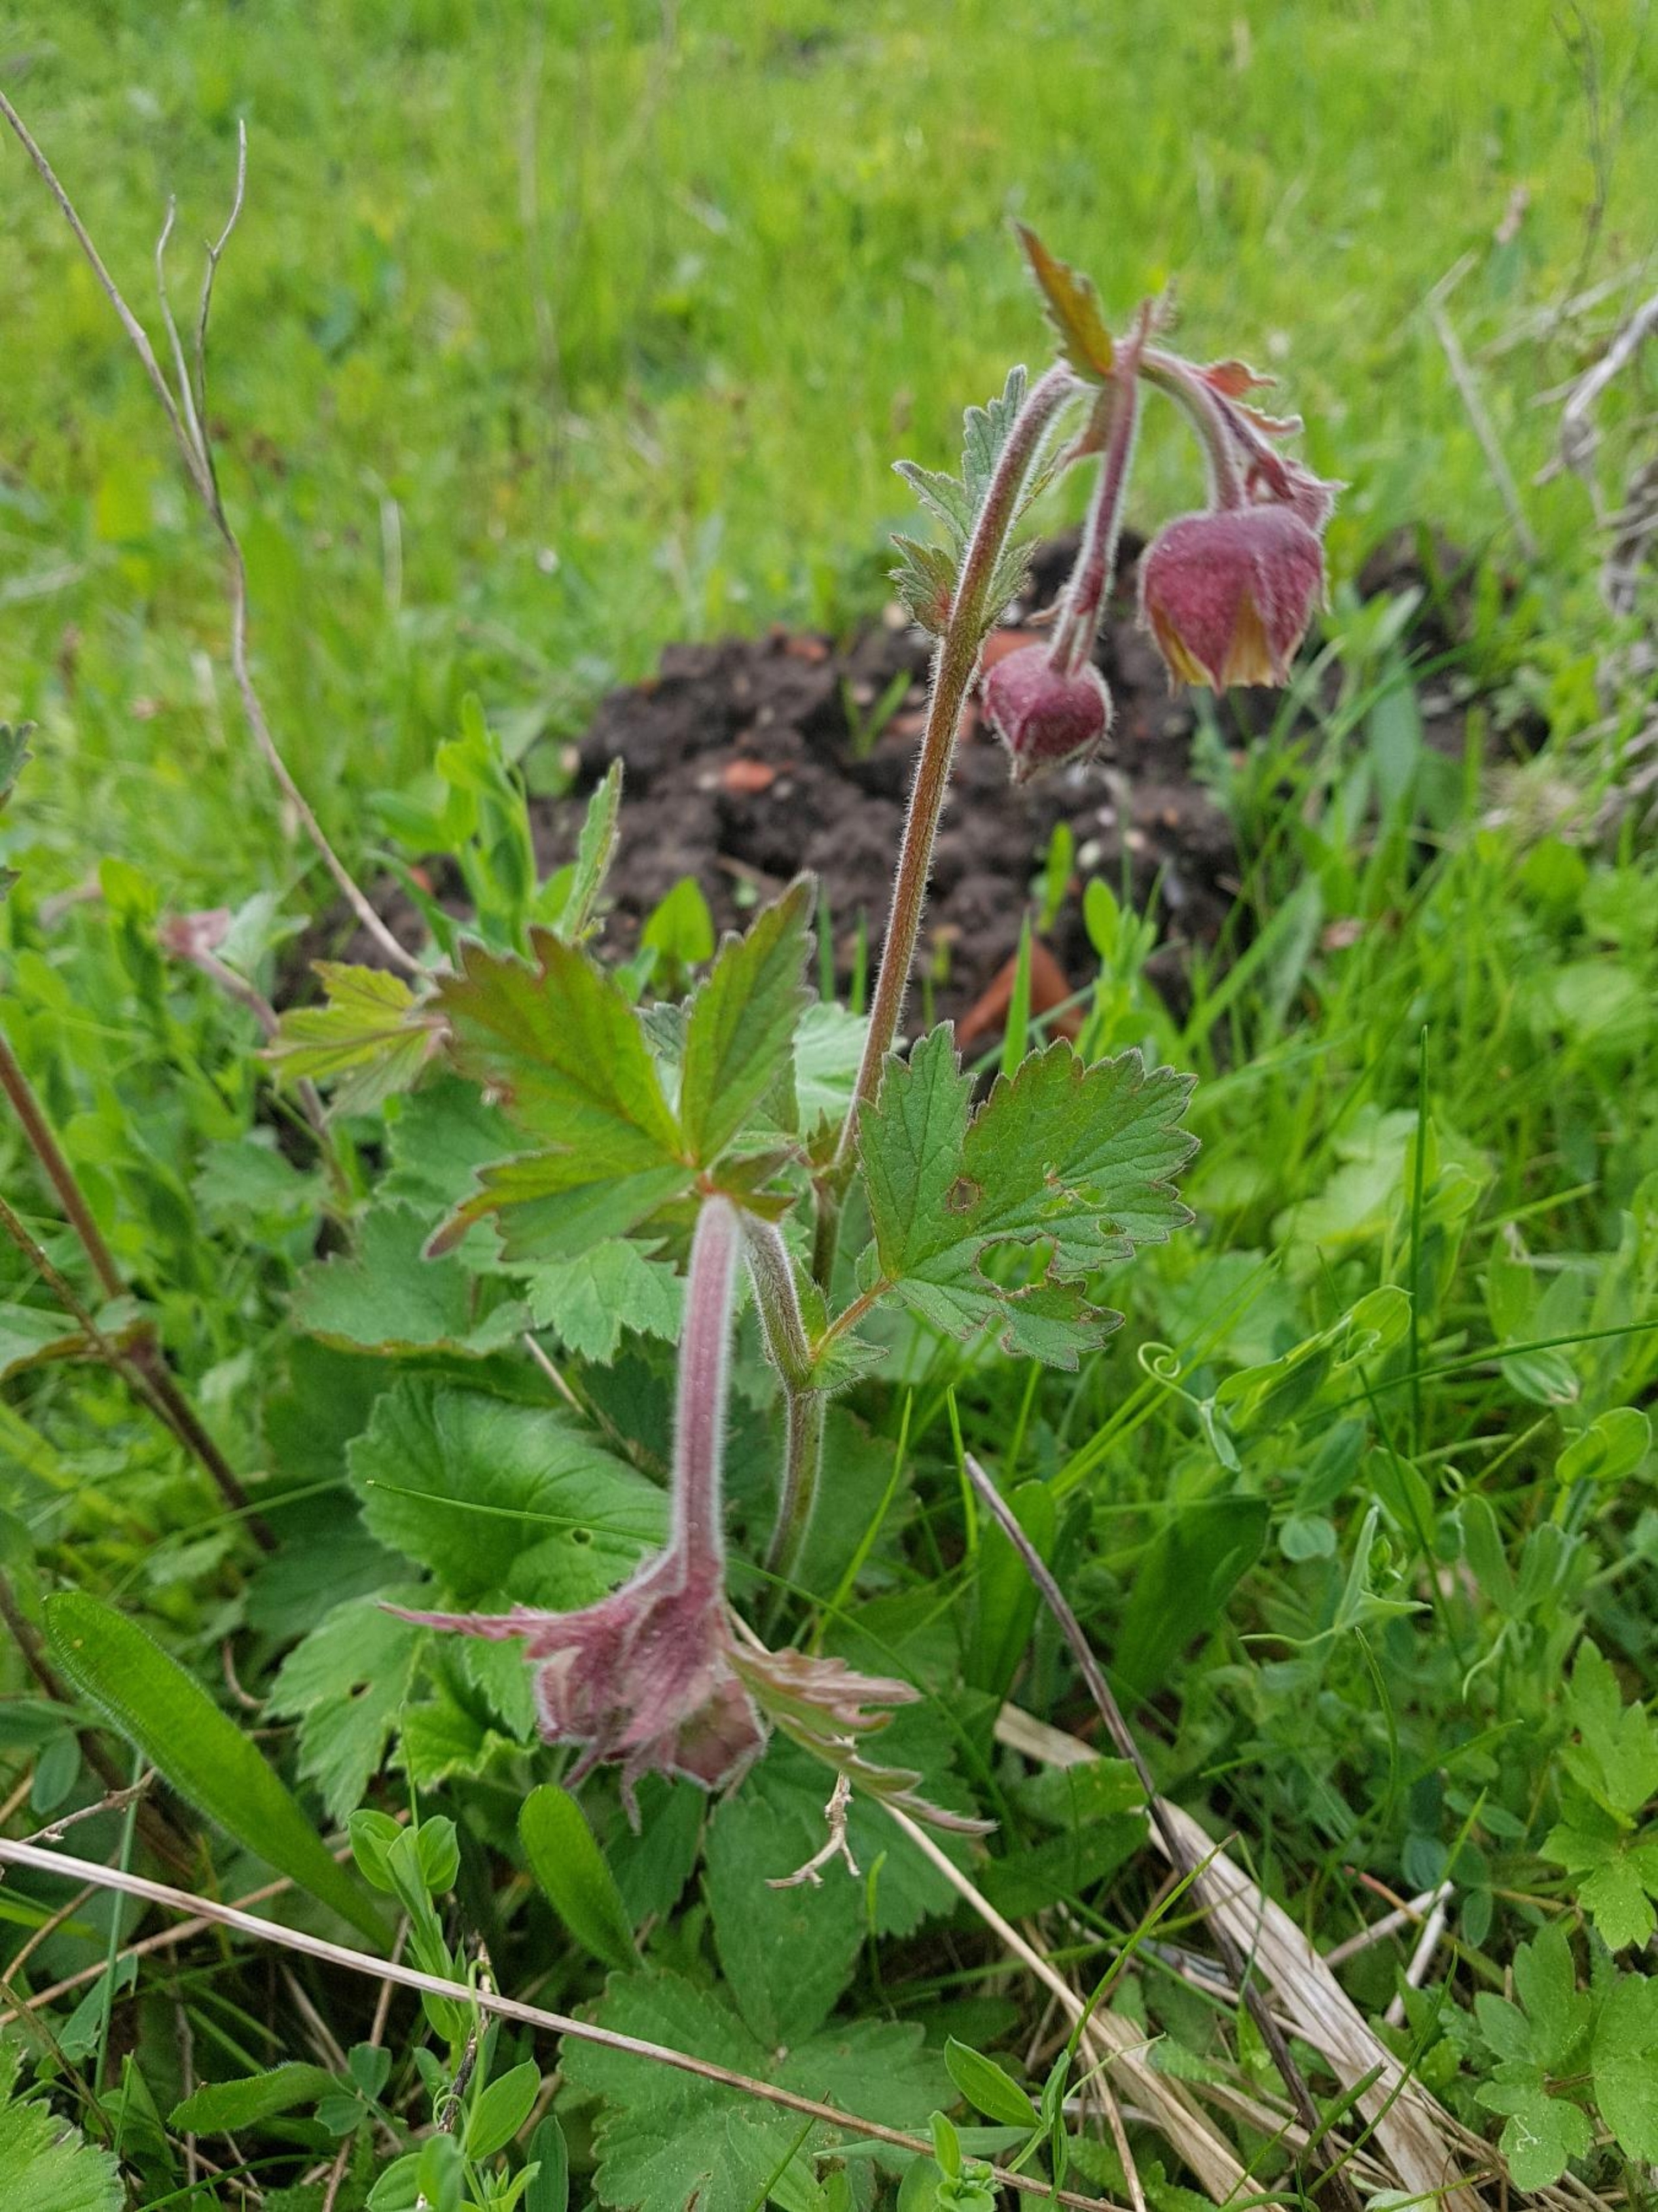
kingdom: Plantae
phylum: Tracheophyta
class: Magnoliopsida
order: Rosales
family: Rosaceae
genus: Geum
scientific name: Geum rivale
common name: Eng-nellikerod
